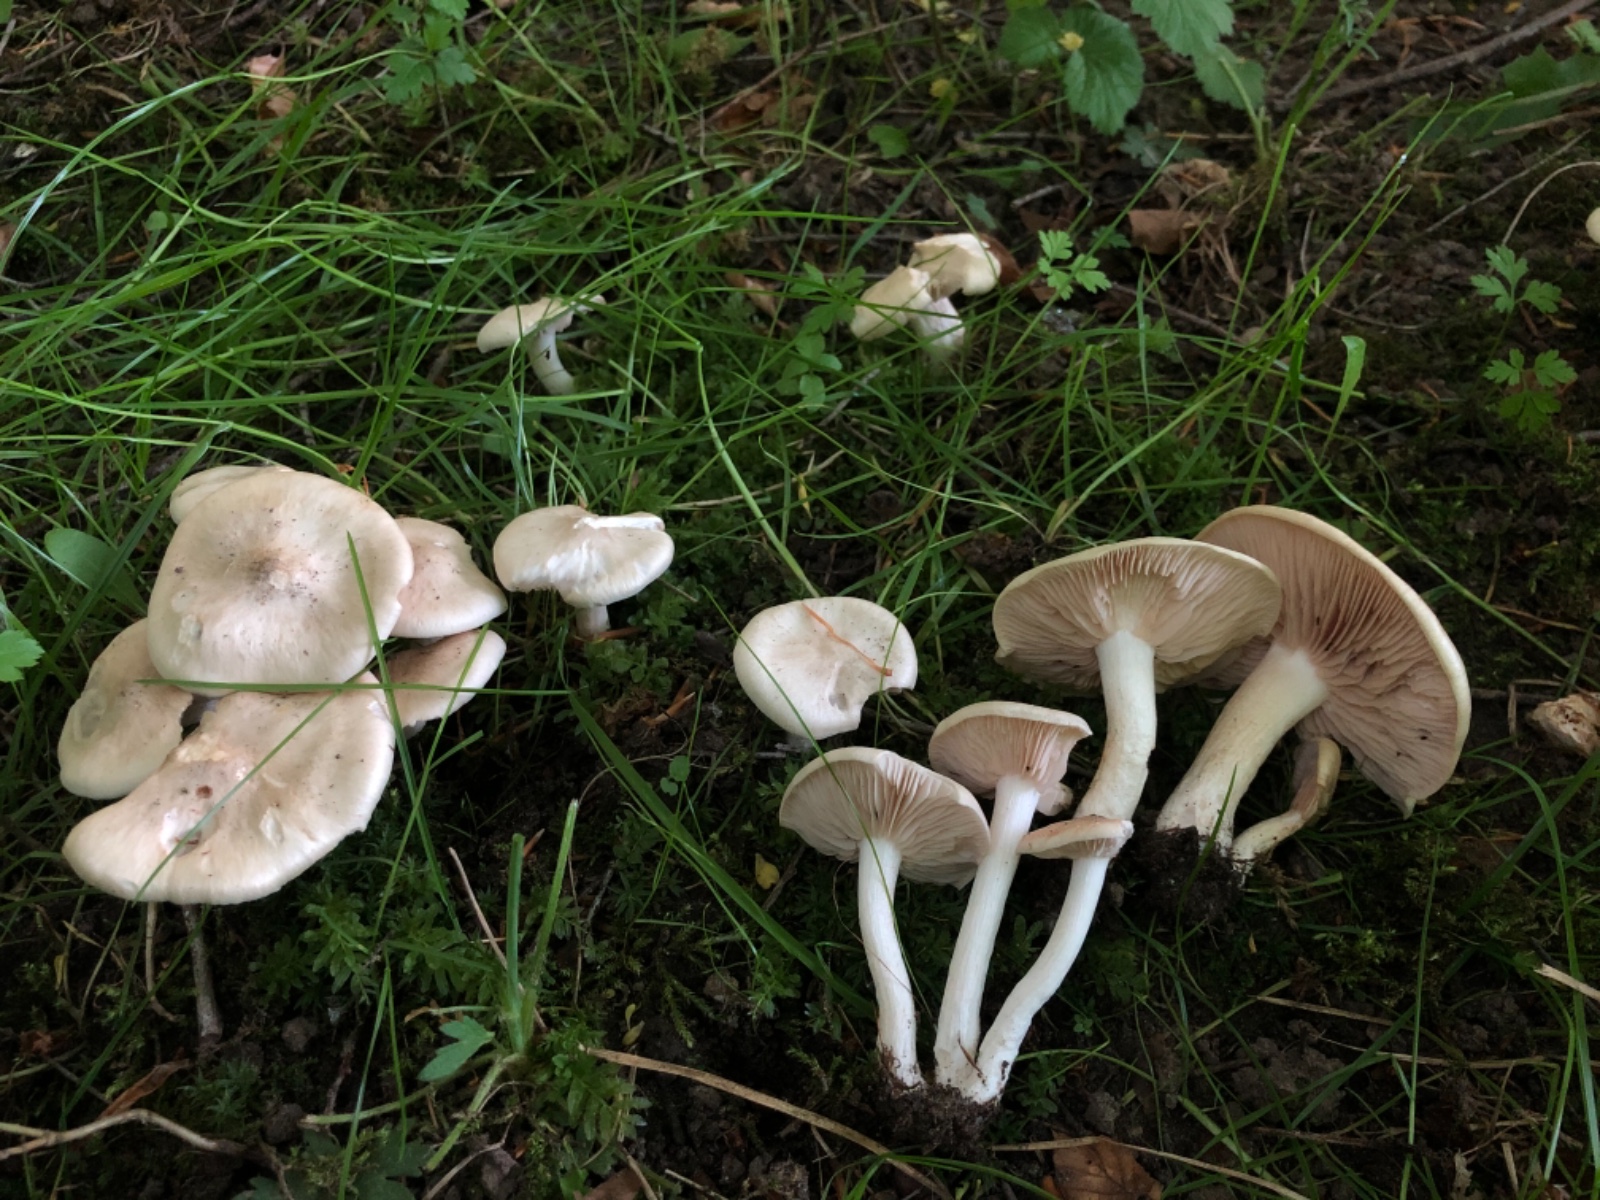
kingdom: Fungi
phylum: Basidiomycota
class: Agaricomycetes
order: Agaricales
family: Entolomataceae
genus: Entoloma
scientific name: Entoloma clypeatum
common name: flammet rødblad
